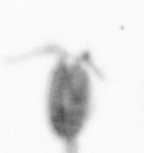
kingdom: Animalia
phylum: Arthropoda
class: Maxillopoda
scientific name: Maxillopoda
